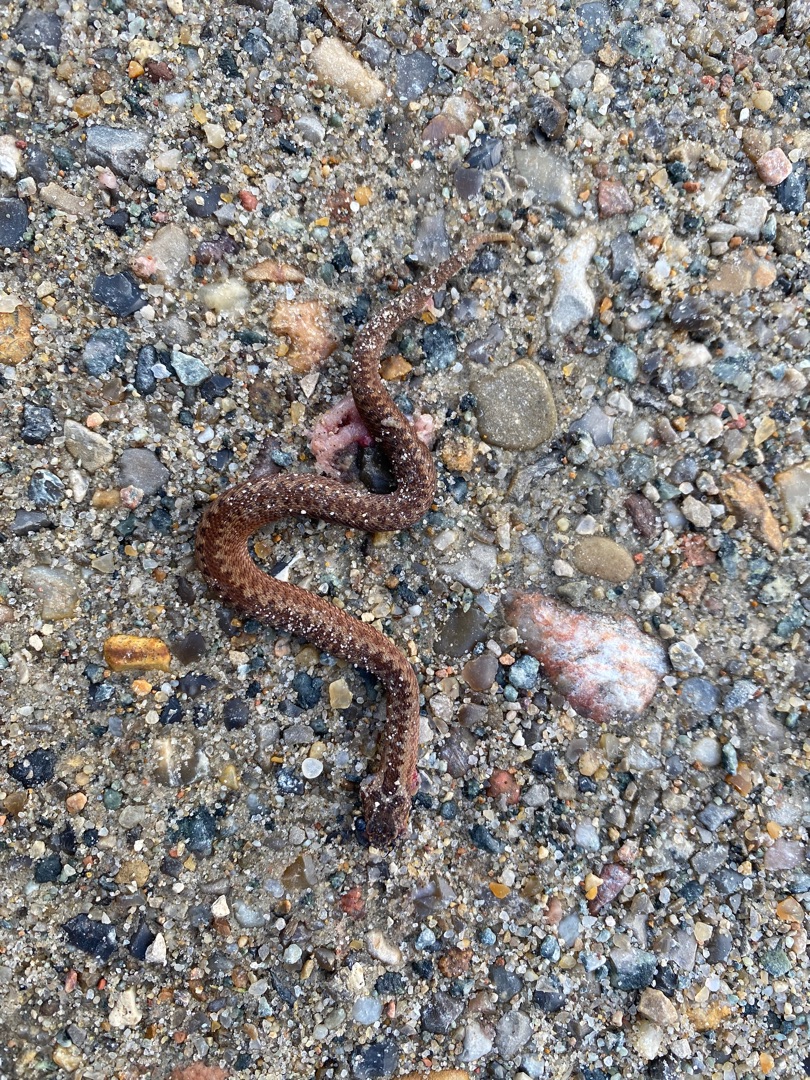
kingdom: Animalia
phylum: Chordata
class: Squamata
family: Viperidae
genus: Vipera
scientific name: Vipera berus
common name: Hugorm
